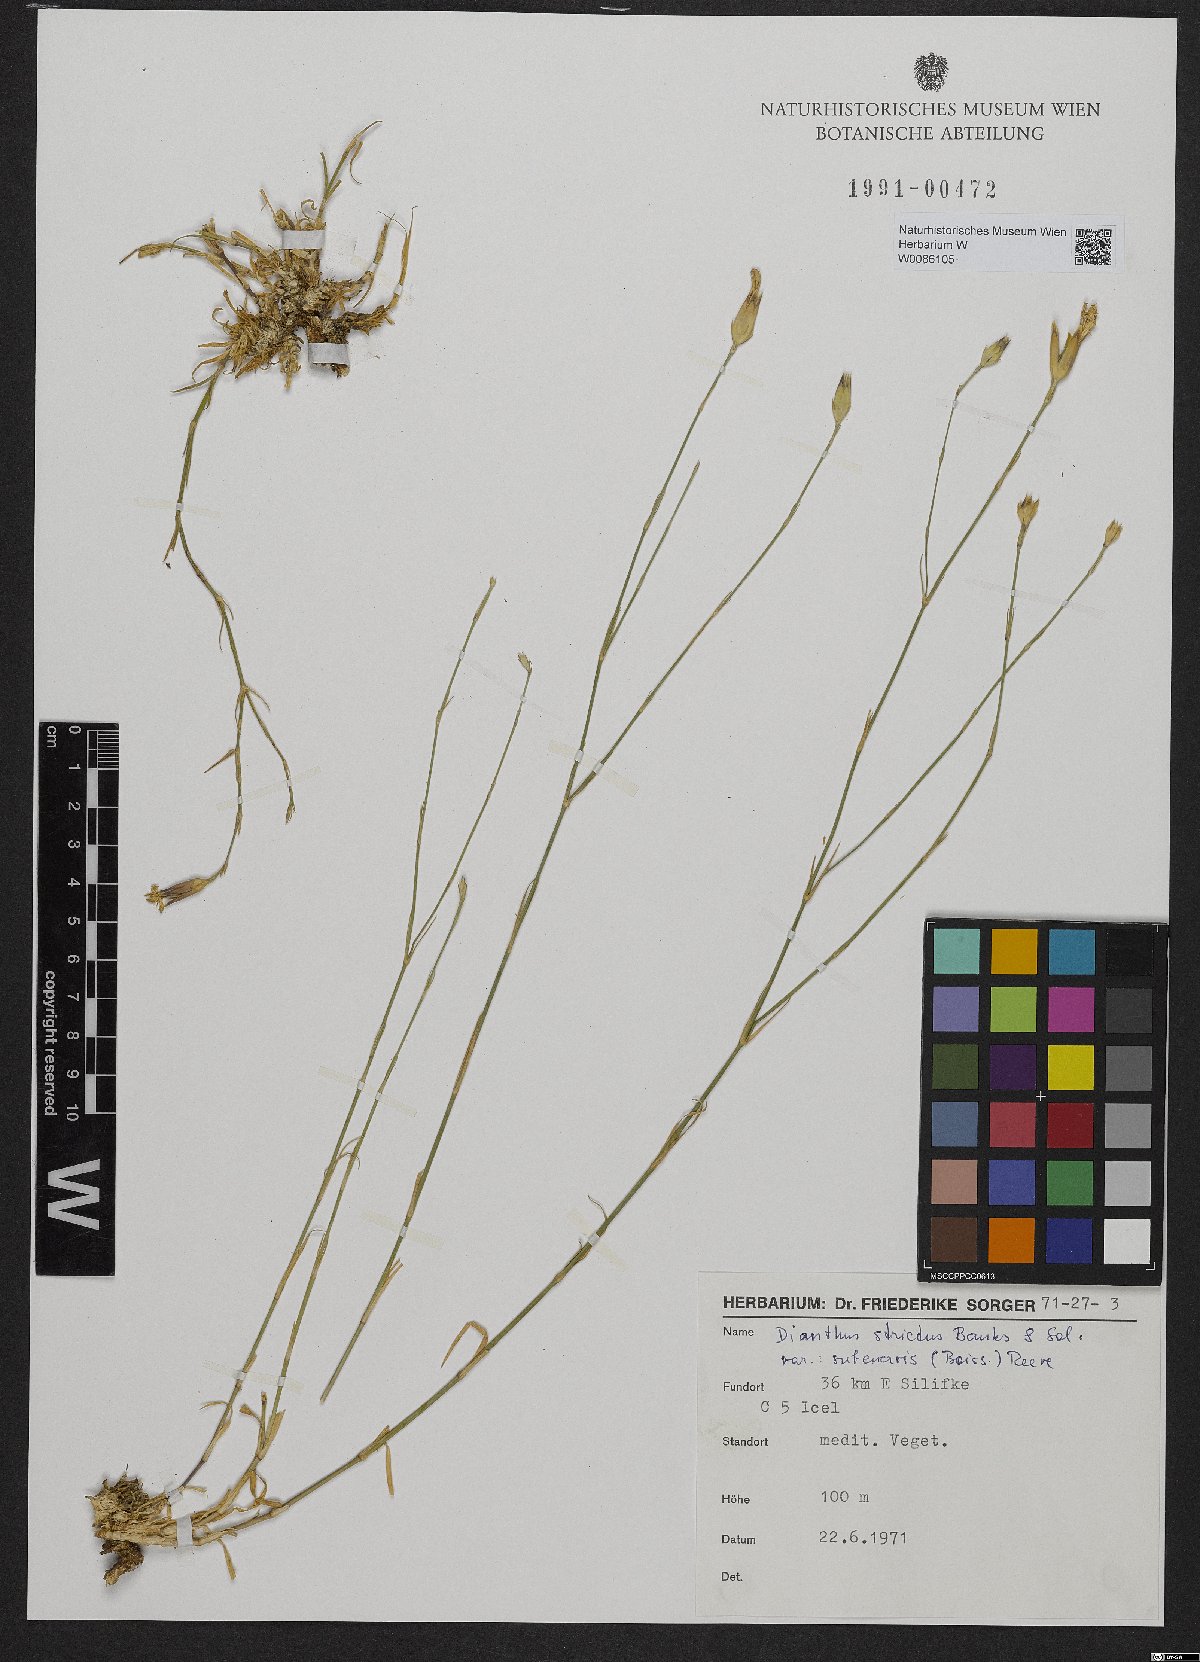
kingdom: Plantae
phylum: Tracheophyta
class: Magnoliopsida
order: Caryophyllales
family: Caryophyllaceae
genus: Dianthus
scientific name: Dianthus strictus
